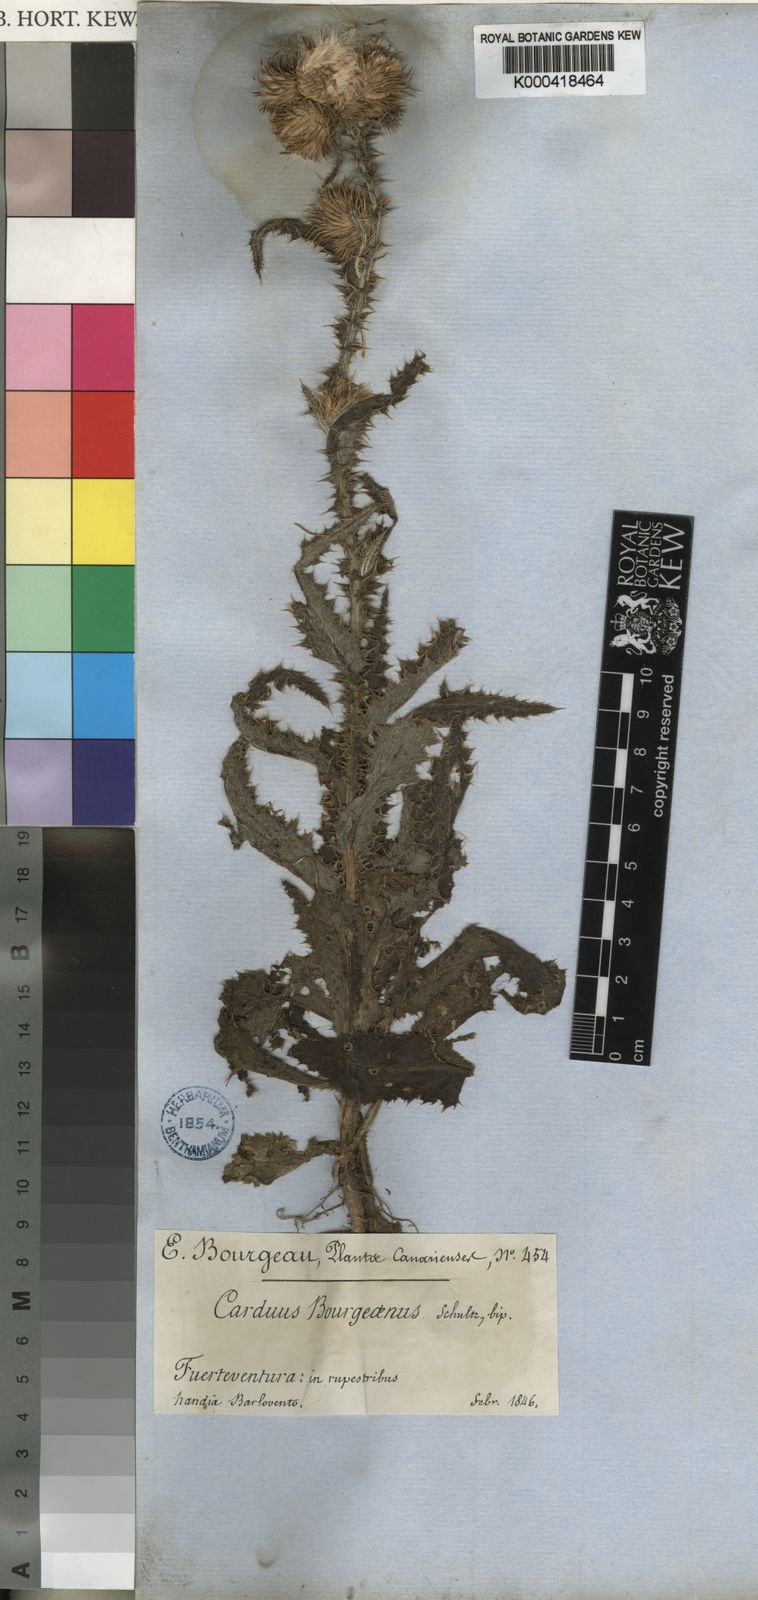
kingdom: Plantae
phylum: Tracheophyta
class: Magnoliopsida
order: Asterales
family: Asteraceae
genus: Carduus
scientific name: Carduus
